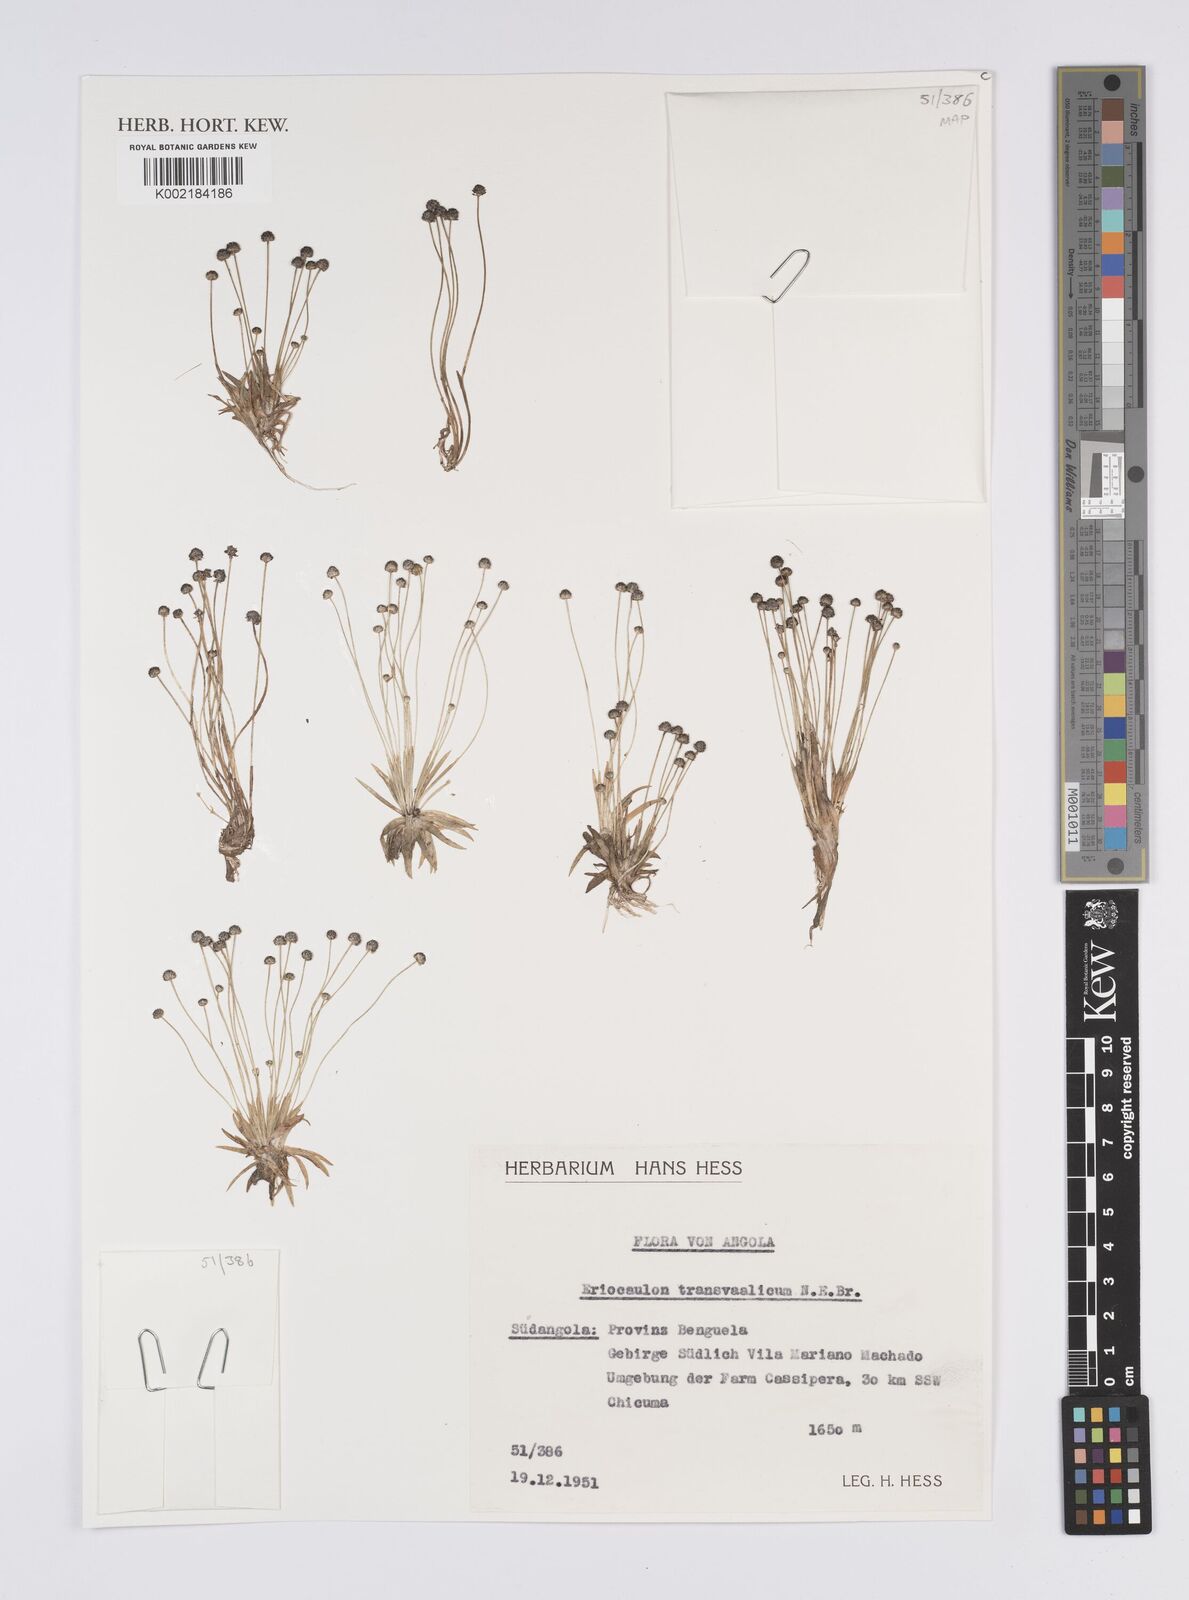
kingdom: Plantae
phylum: Tracheophyta
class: Liliopsida
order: Poales
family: Eriocaulaceae
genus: Eriocaulon
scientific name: Eriocaulon transvaalicum
